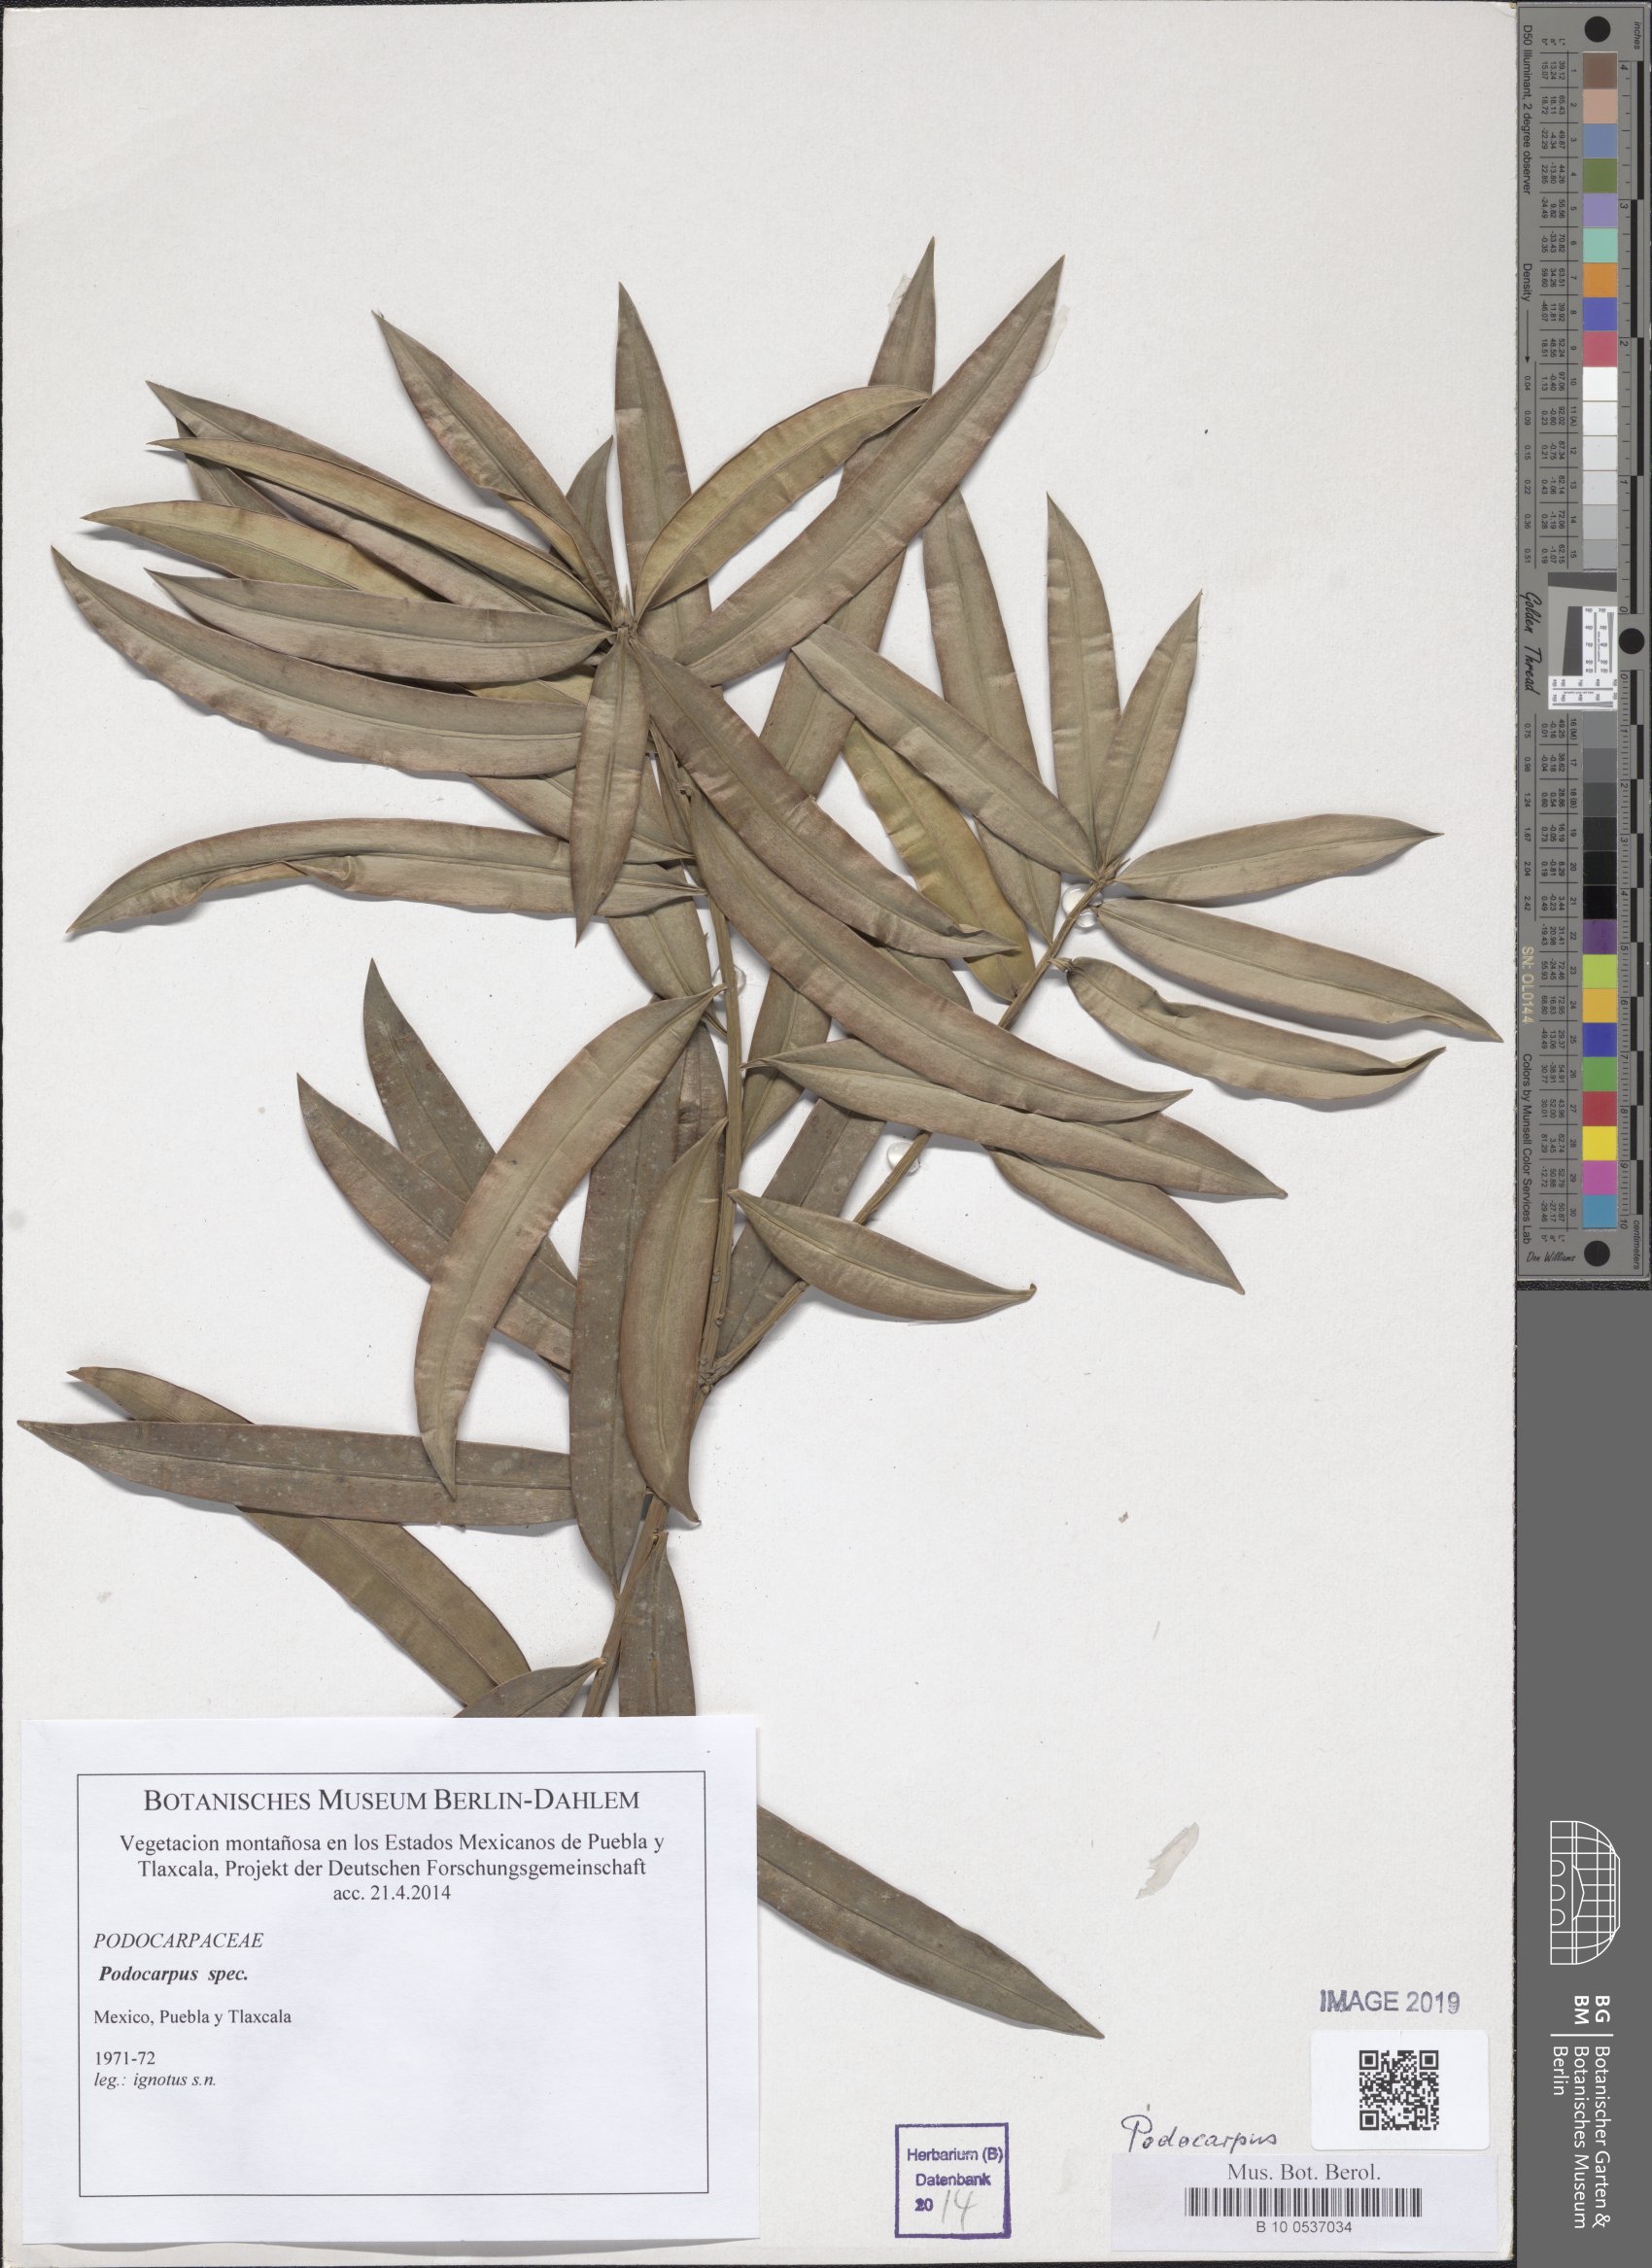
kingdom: Plantae
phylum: Tracheophyta
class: Pinopsida
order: Pinales
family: Podocarpaceae
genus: Podocarpus
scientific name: Podocarpus
